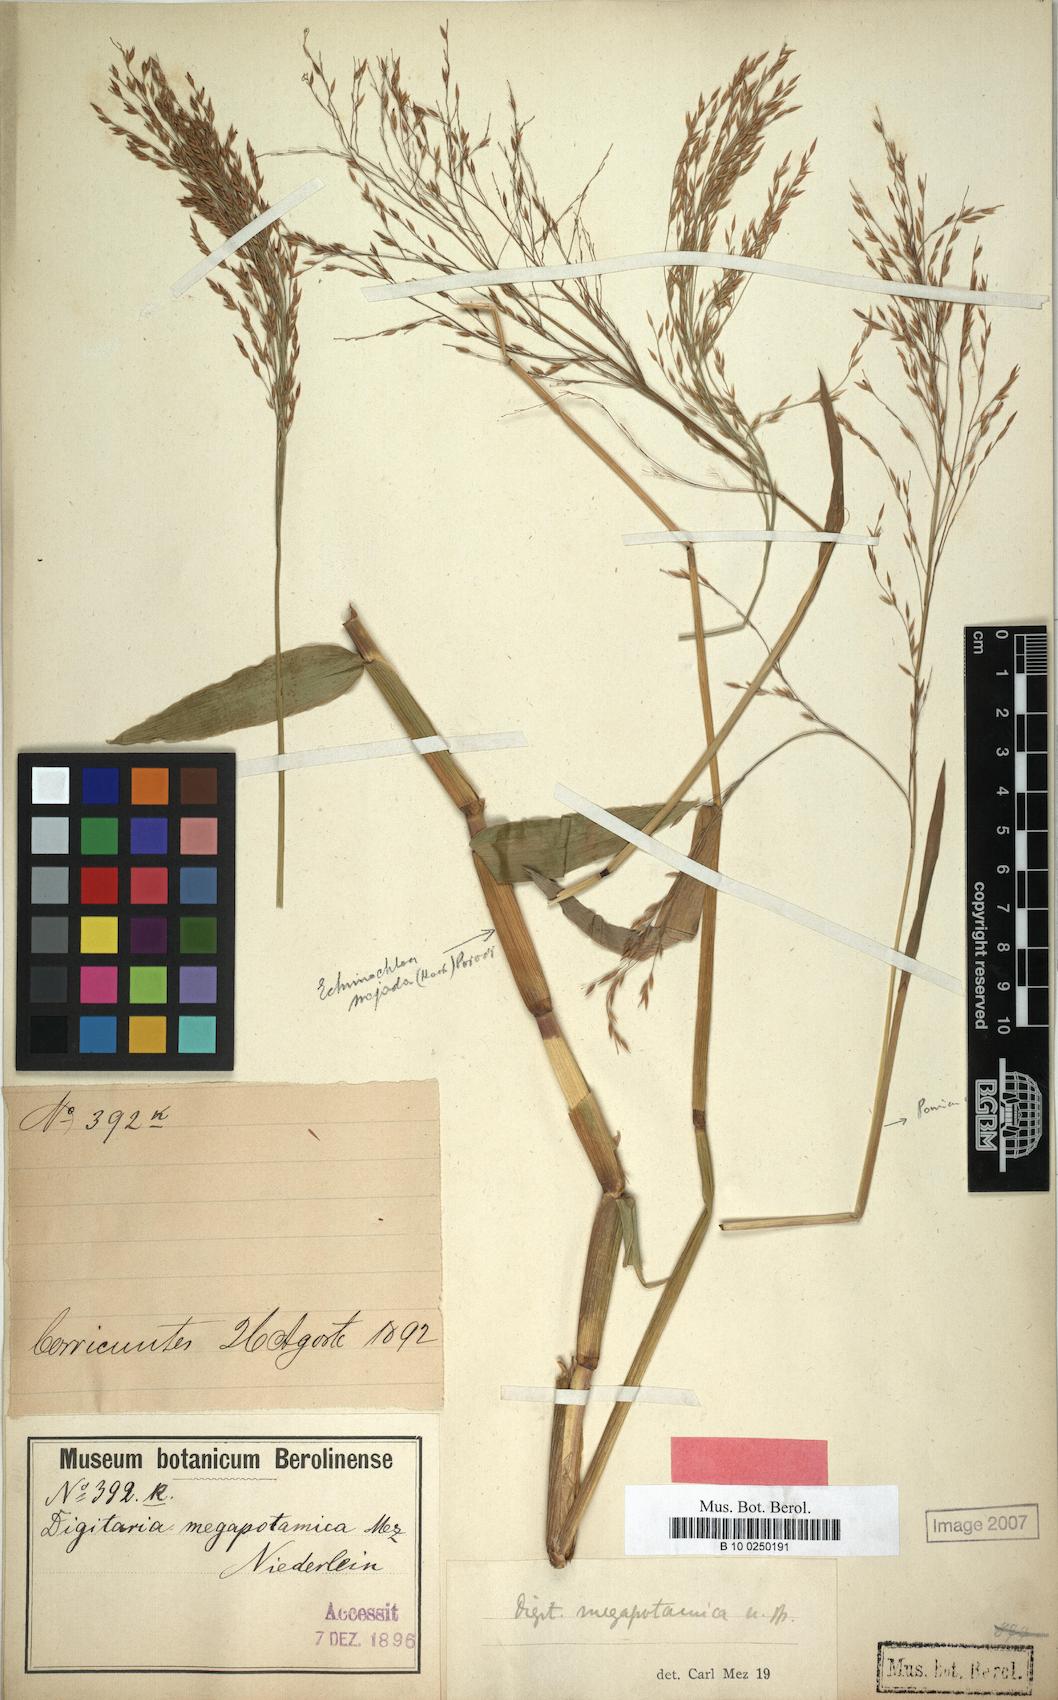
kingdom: Plantae
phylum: Tracheophyta
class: Liliopsida
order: Poales
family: Poaceae
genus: Louisiella
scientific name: Louisiella elephantipes
